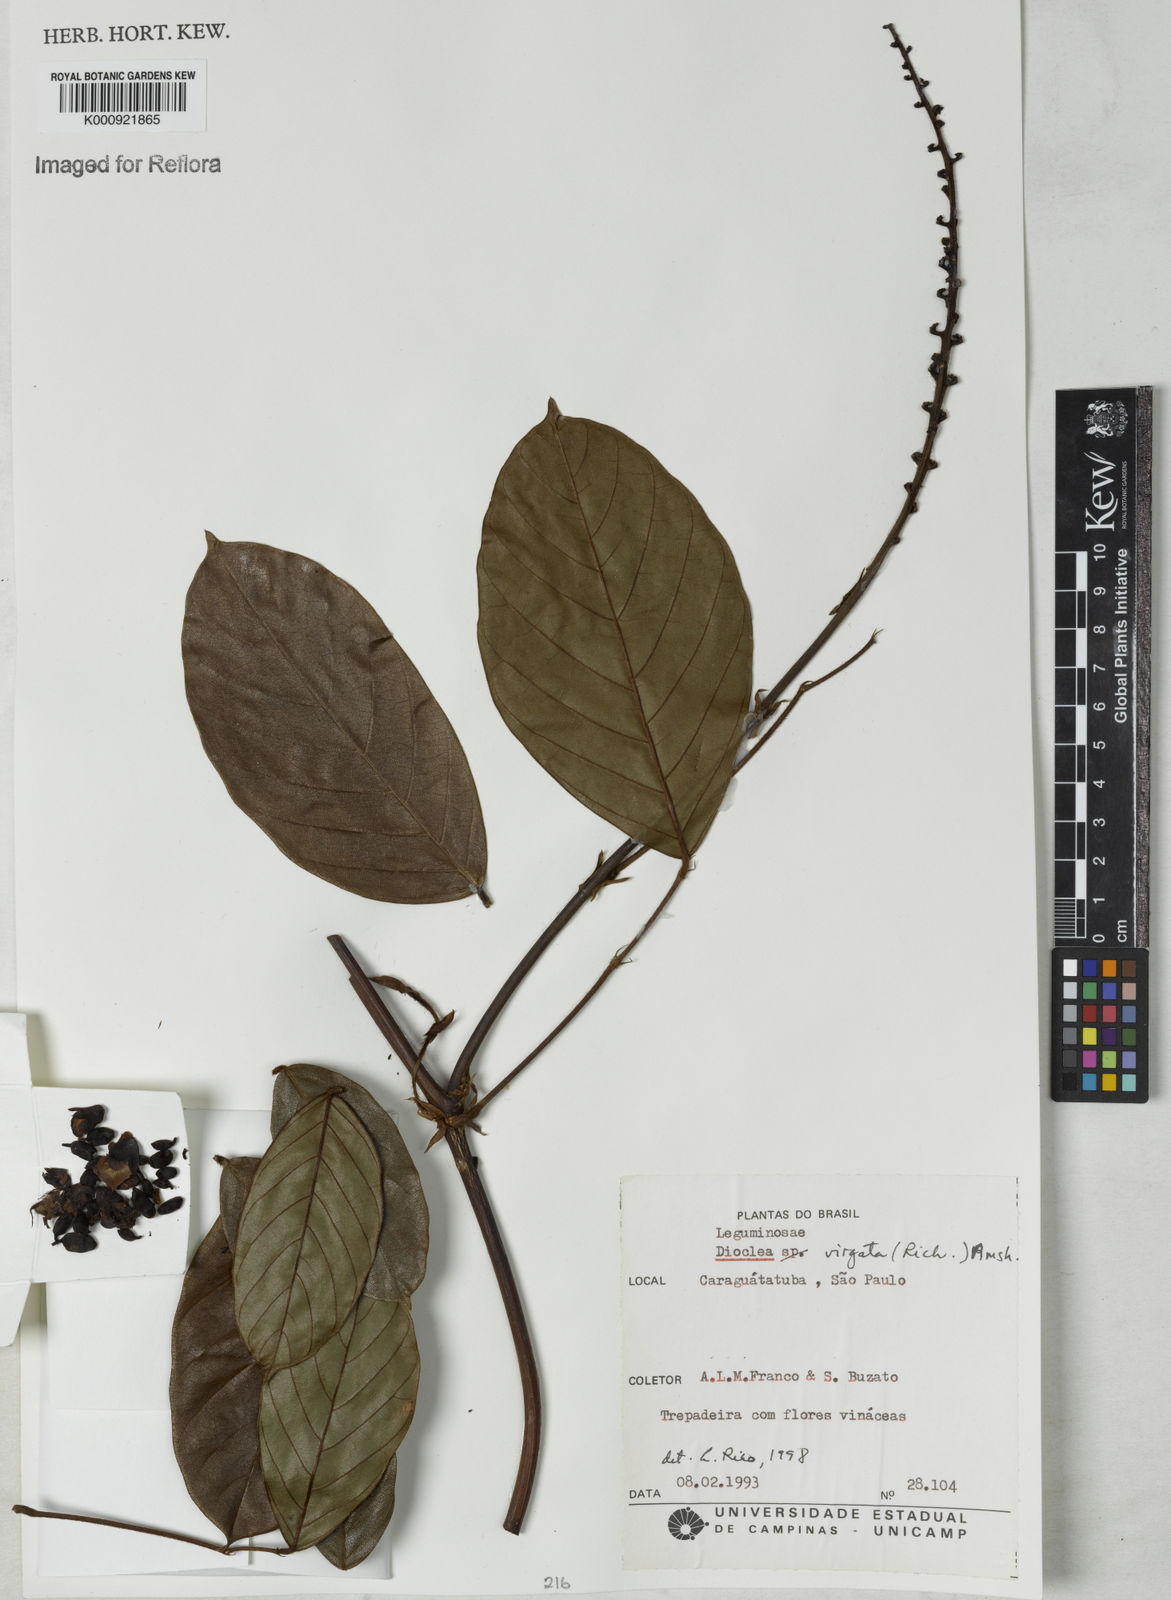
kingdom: Plantae
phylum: Tracheophyta
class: Magnoliopsida
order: Fabales
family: Fabaceae
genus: Dioclea
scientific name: Dioclea virgata
